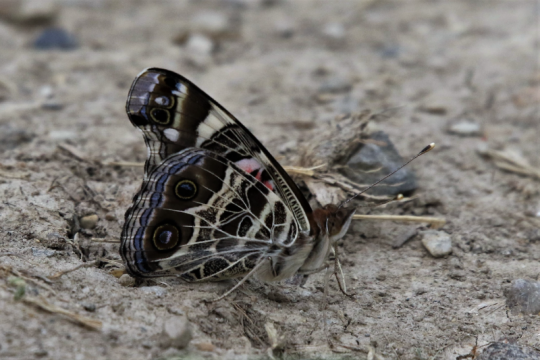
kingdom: Animalia
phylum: Arthropoda
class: Insecta
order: Lepidoptera
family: Nymphalidae
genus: Vanessa
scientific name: Vanessa virginiensis
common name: American Lady
